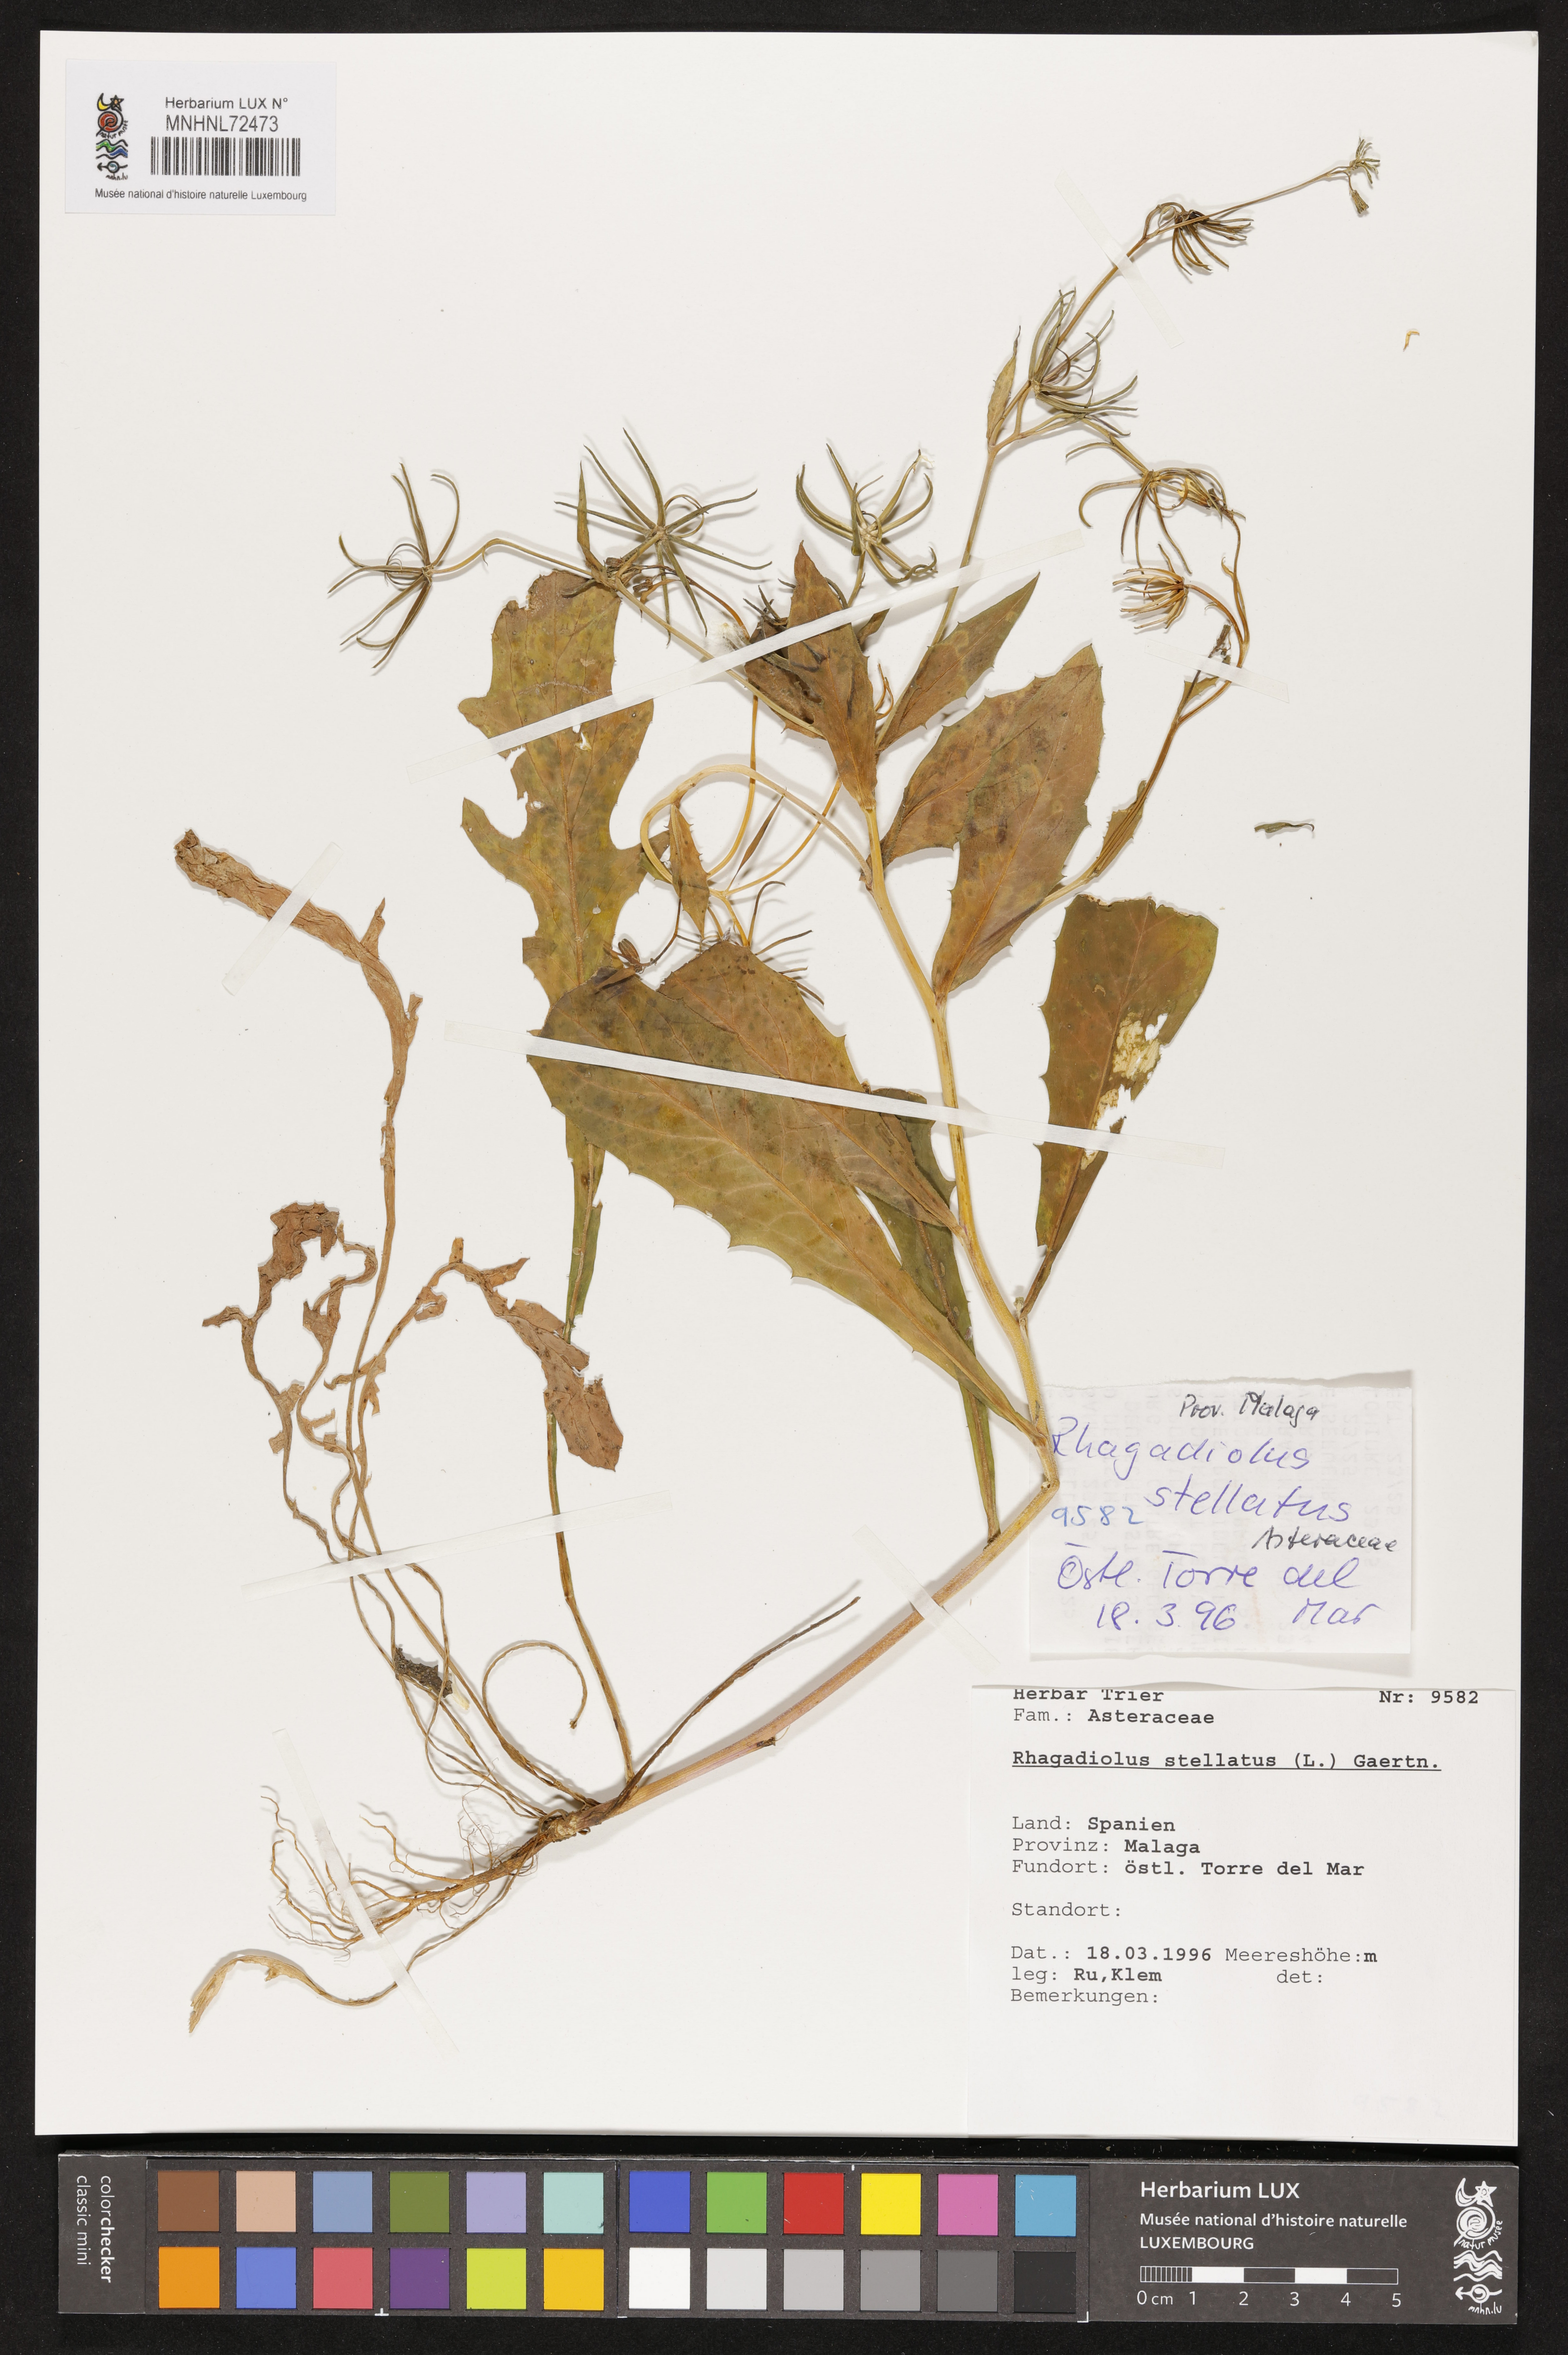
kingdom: Plantae
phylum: Tracheophyta
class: Magnoliopsida
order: Asterales
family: Asteraceae
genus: Rhagadiolus
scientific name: Rhagadiolus stellatus
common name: Star hawkbit
